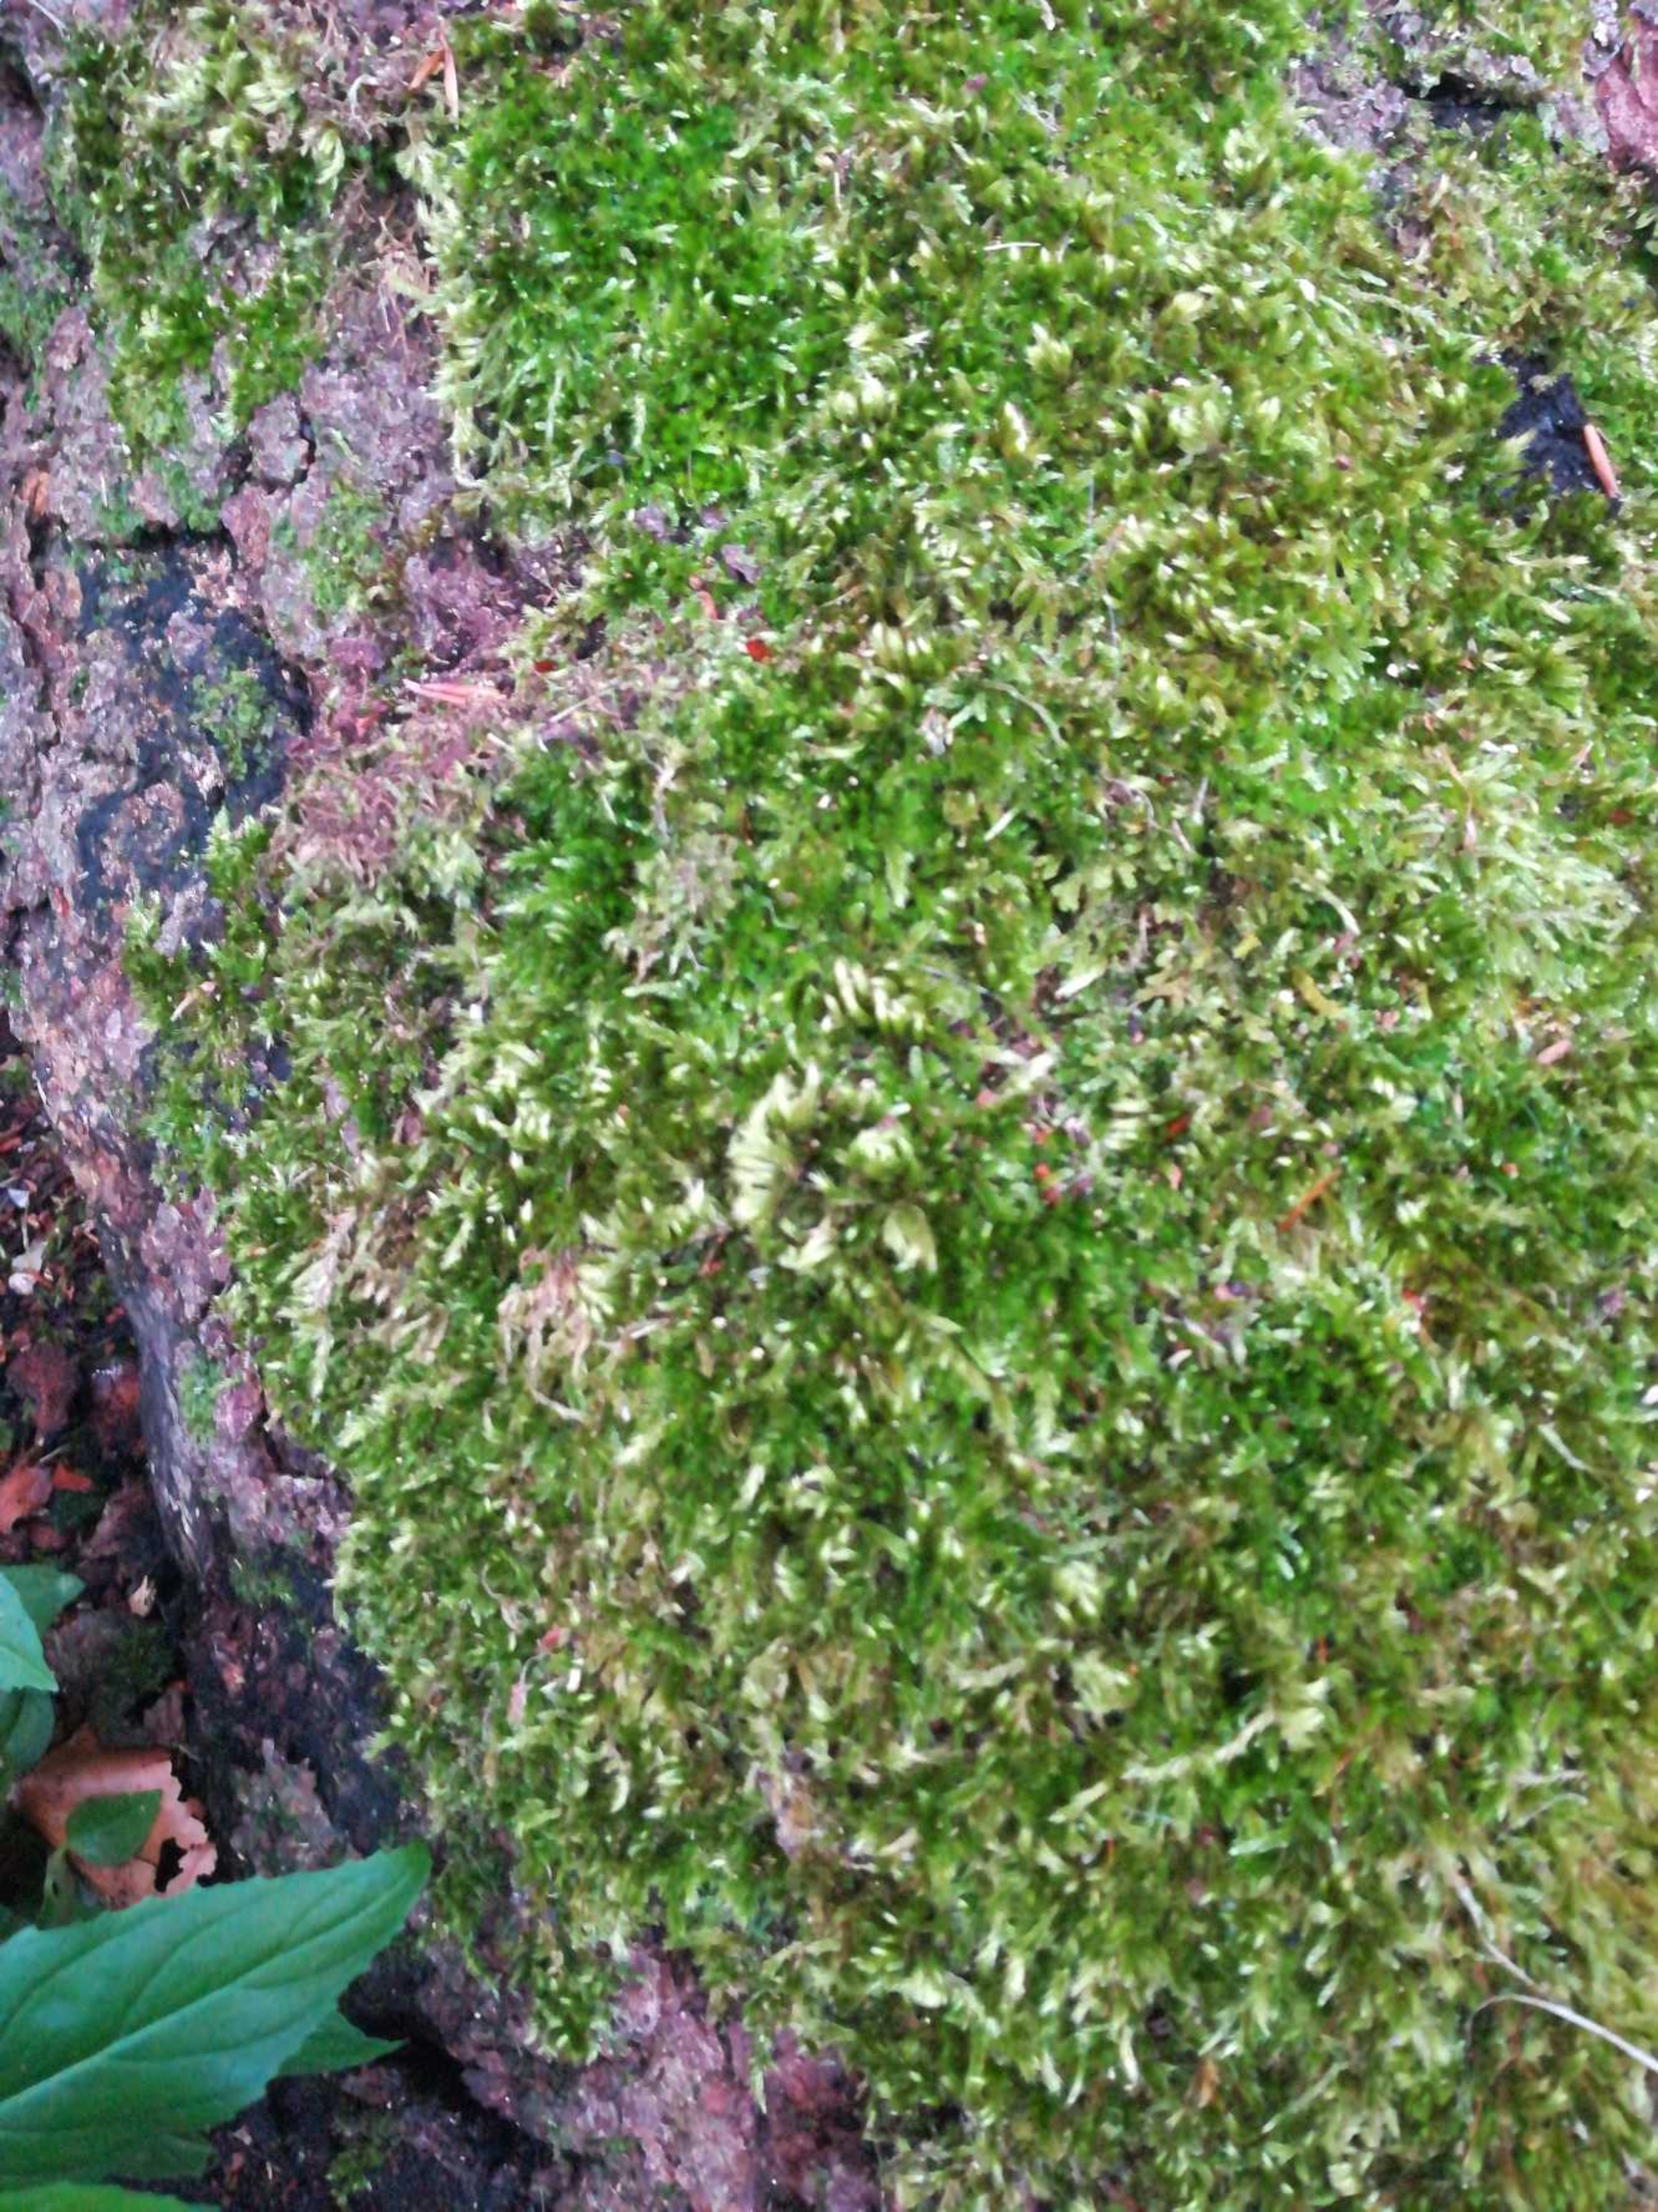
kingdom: Plantae
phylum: Bryophyta
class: Bryopsida
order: Hypnales
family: Brachytheciaceae
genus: Homalothecium
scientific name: Homalothecium sericeum
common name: Krybende silkemos
